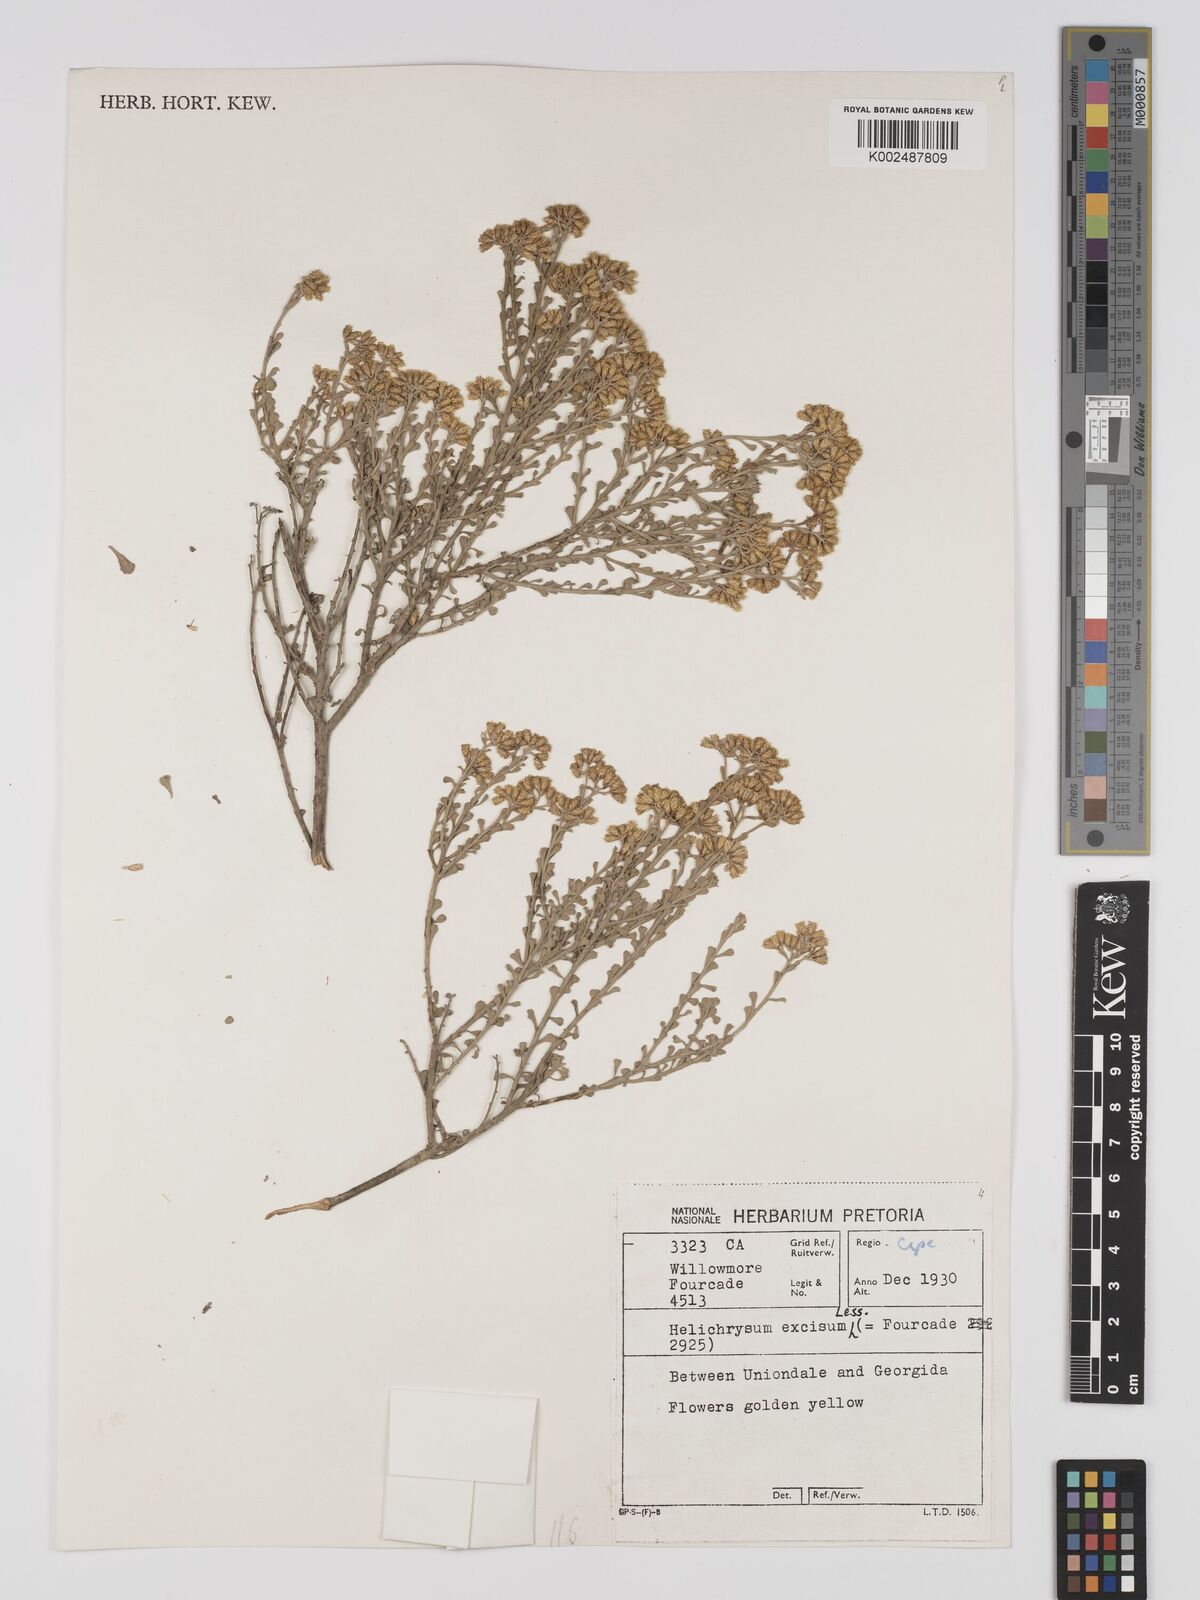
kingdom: Plantae
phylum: Tracheophyta
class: Magnoliopsida
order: Asterales
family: Asteraceae
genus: Helichrysum
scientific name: Helichrysum excisum
